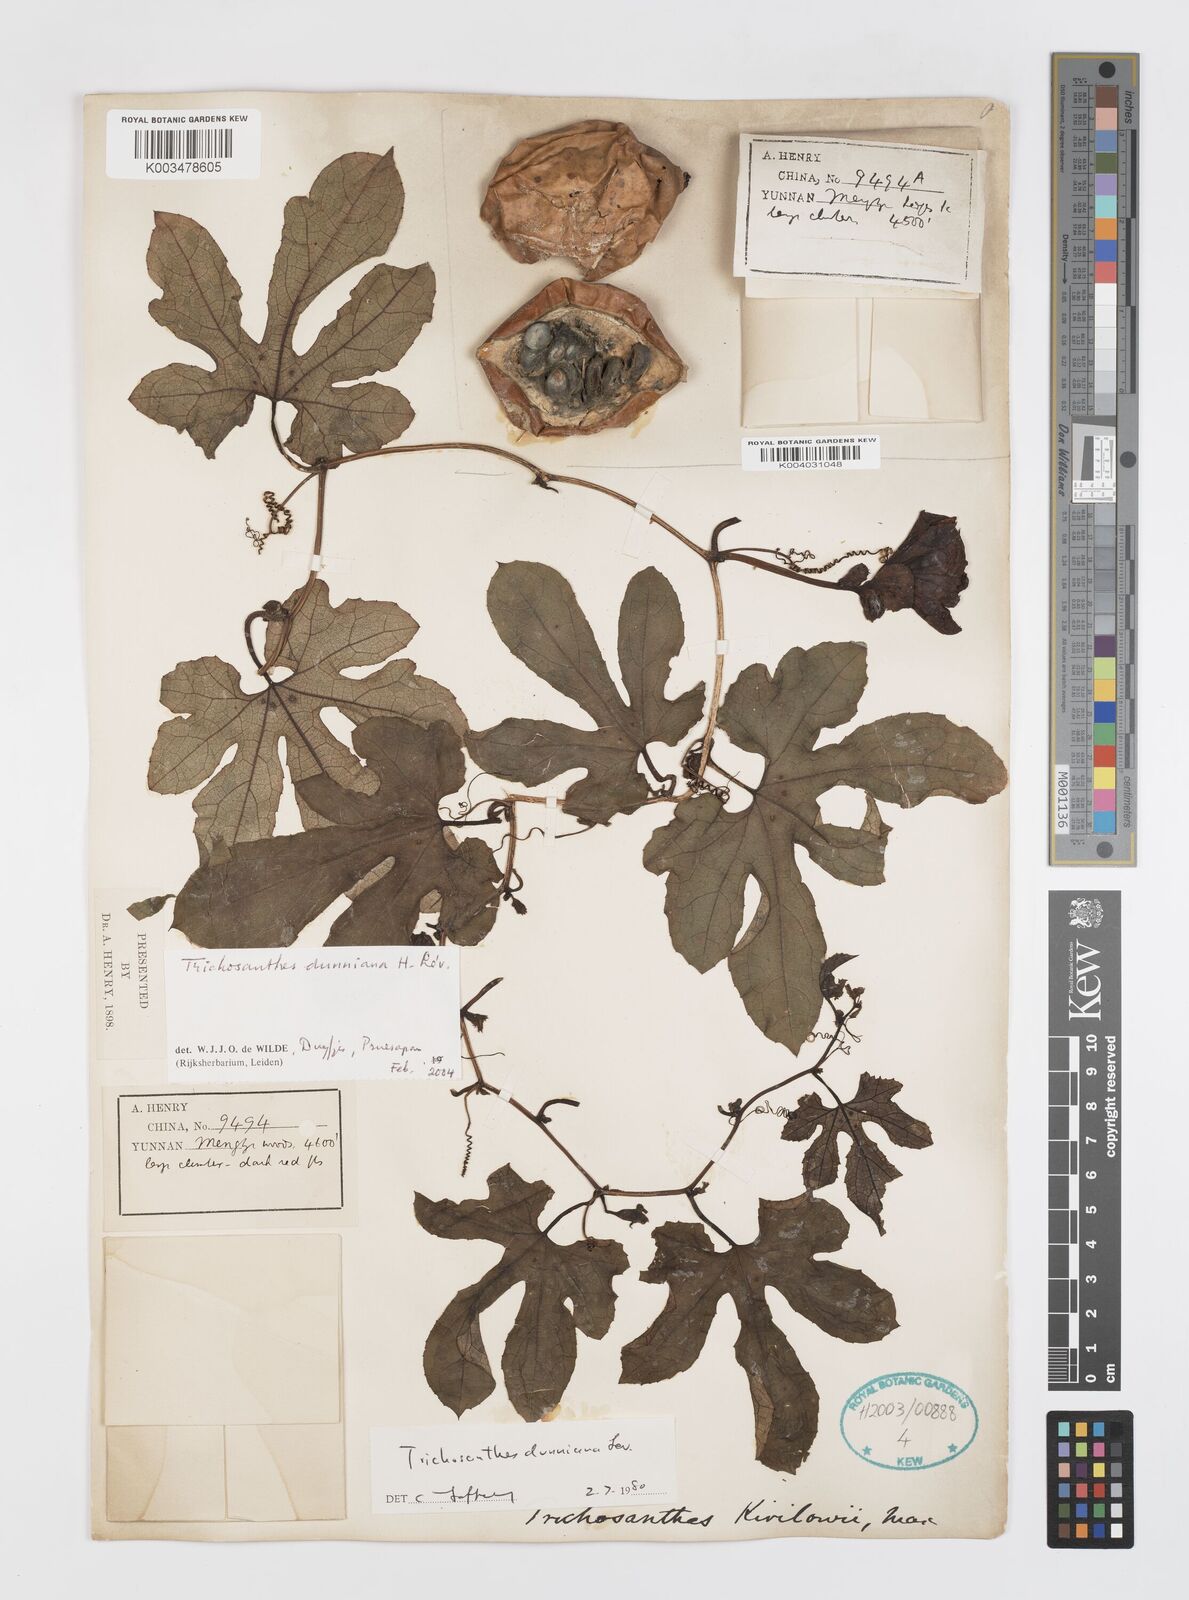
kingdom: Plantae
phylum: Tracheophyta
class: Magnoliopsida
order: Cucurbitales
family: Cucurbitaceae
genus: Trichosanthes
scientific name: Trichosanthes dunniana
